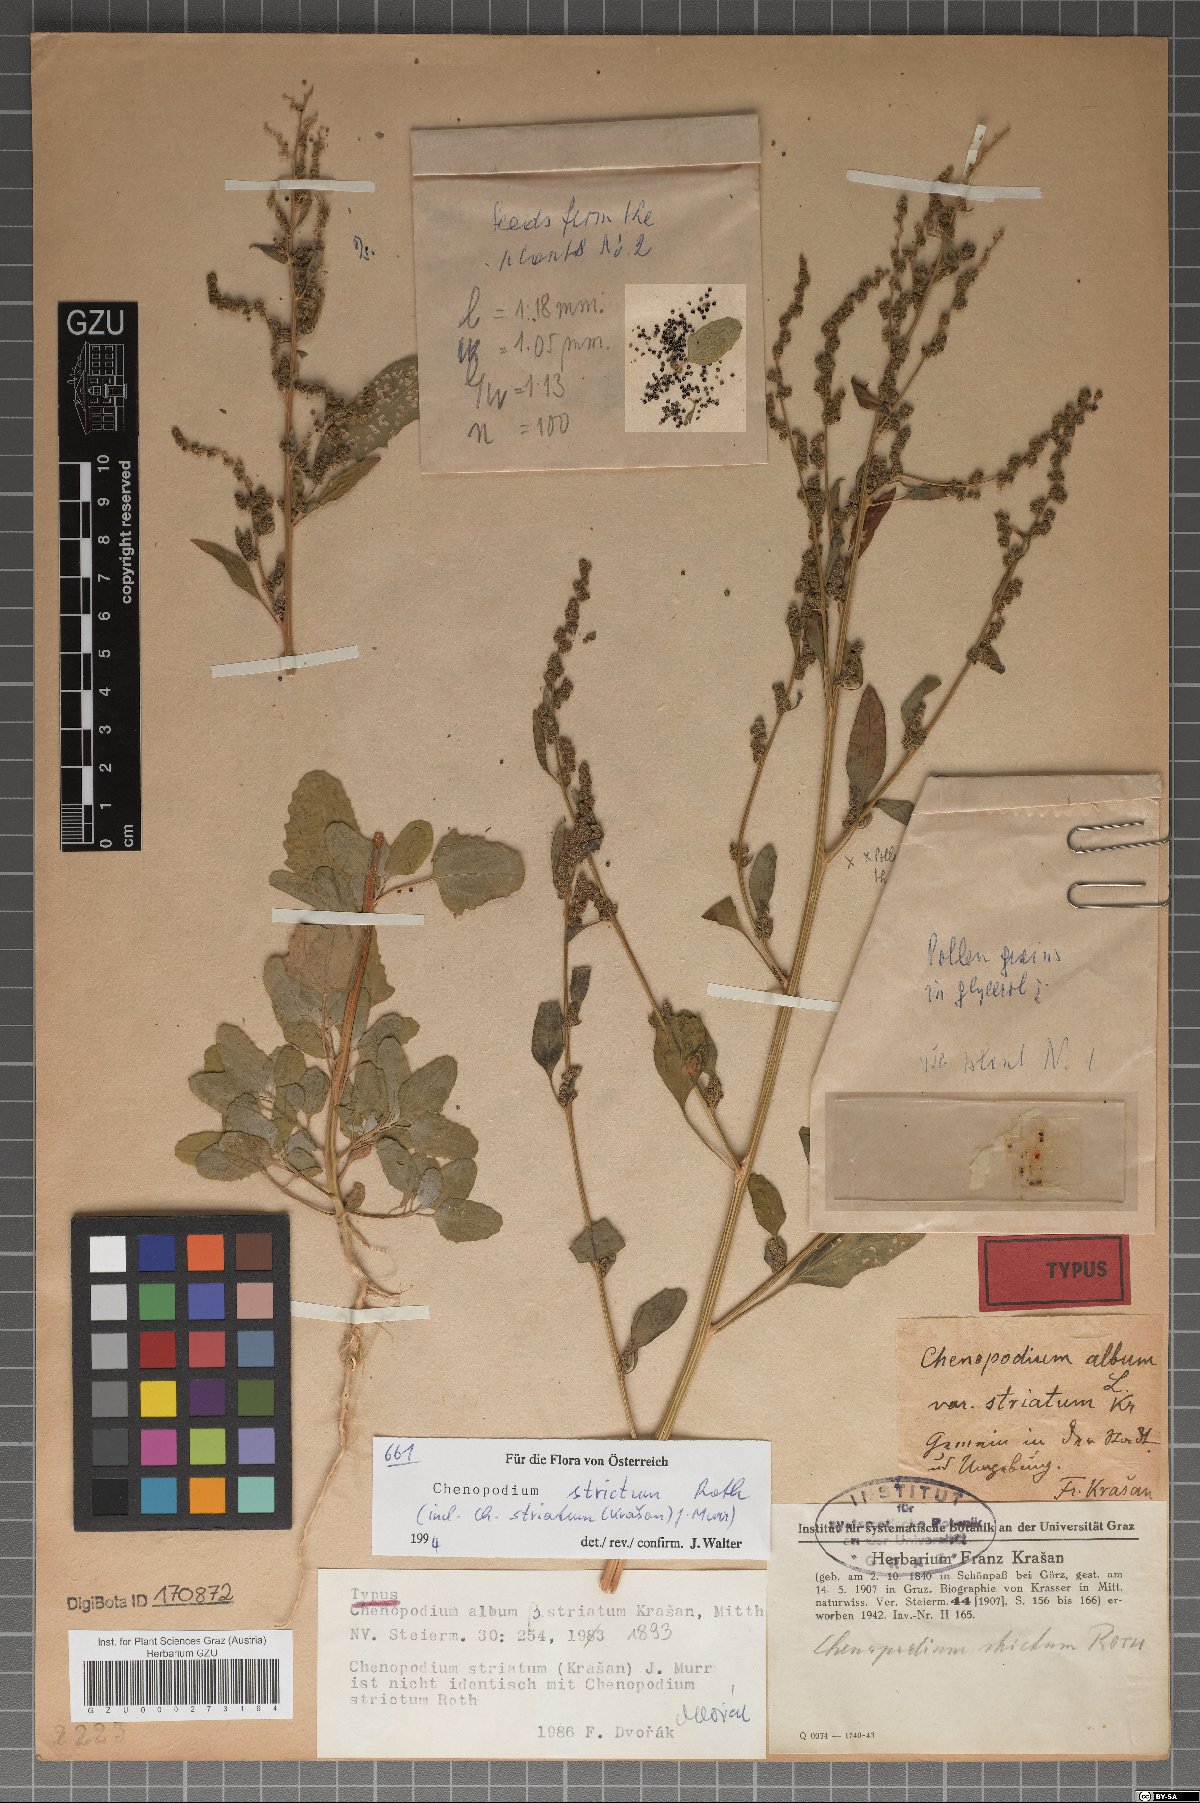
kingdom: Plantae
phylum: Tracheophyta
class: Magnoliopsida
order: Caryophyllales
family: Amaranthaceae
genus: Chenopodium
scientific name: Chenopodium betaceum
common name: Striped goosefoot
